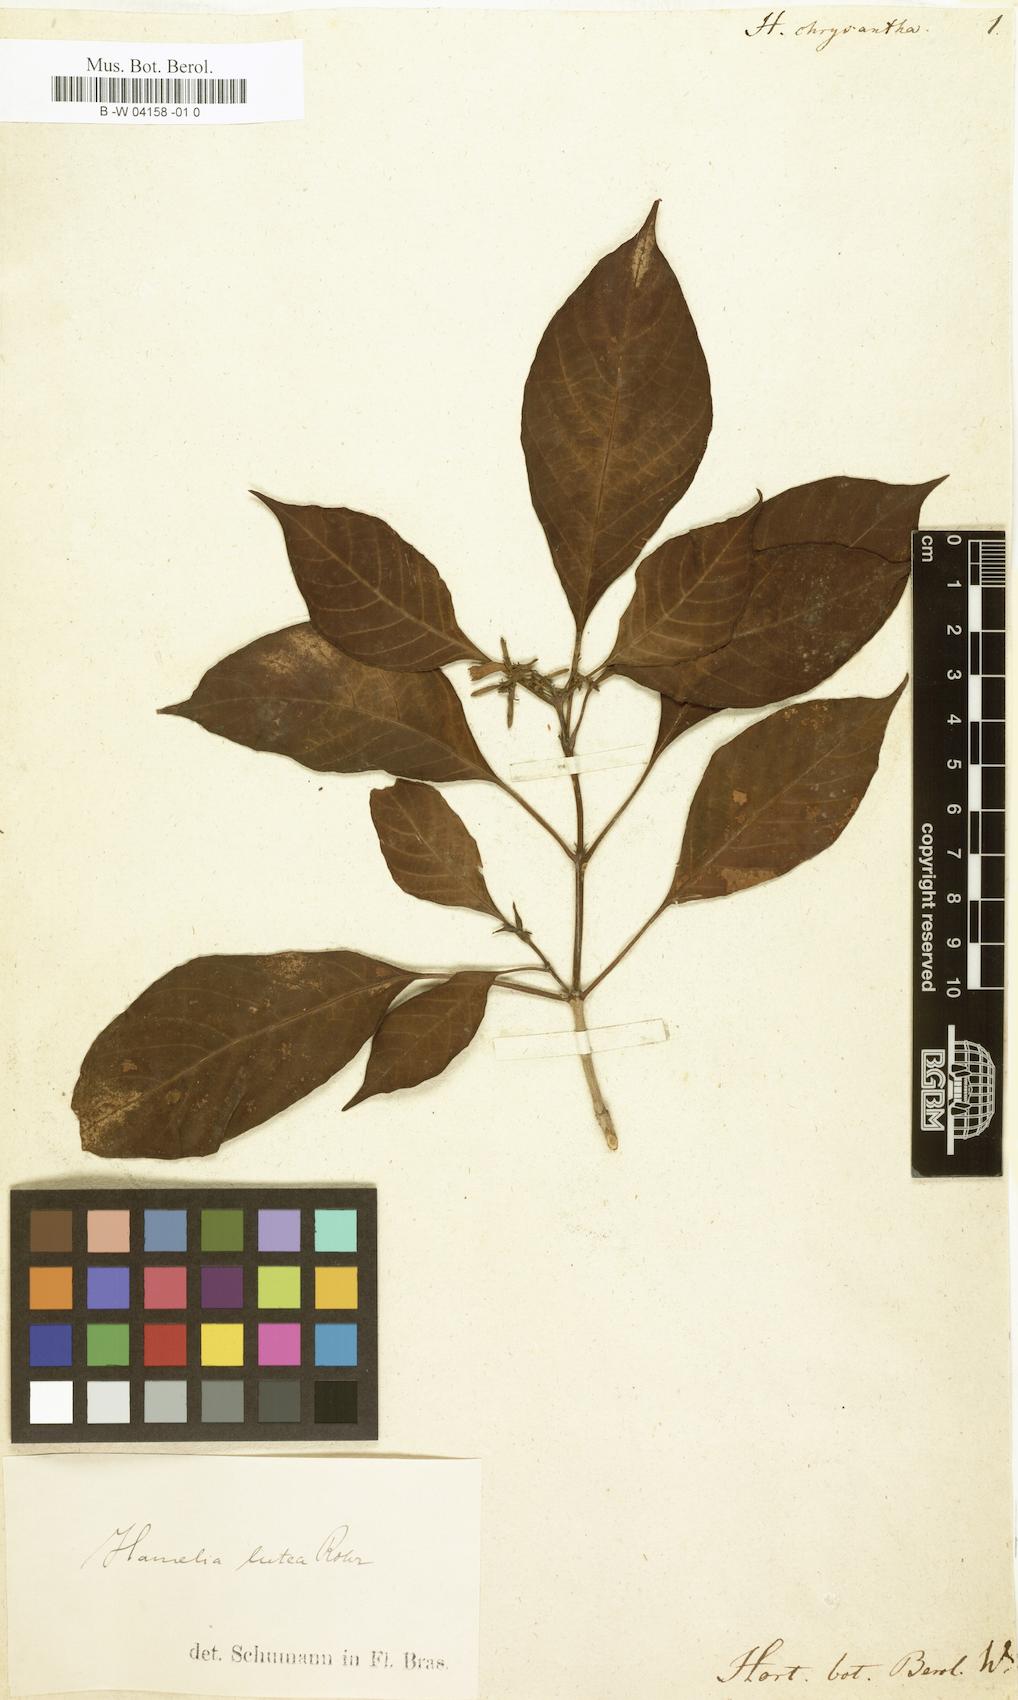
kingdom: Plantae
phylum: Tracheophyta
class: Magnoliopsida
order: Gentianales
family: Rubiaceae
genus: Hamelia
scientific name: Hamelia chrysantha
